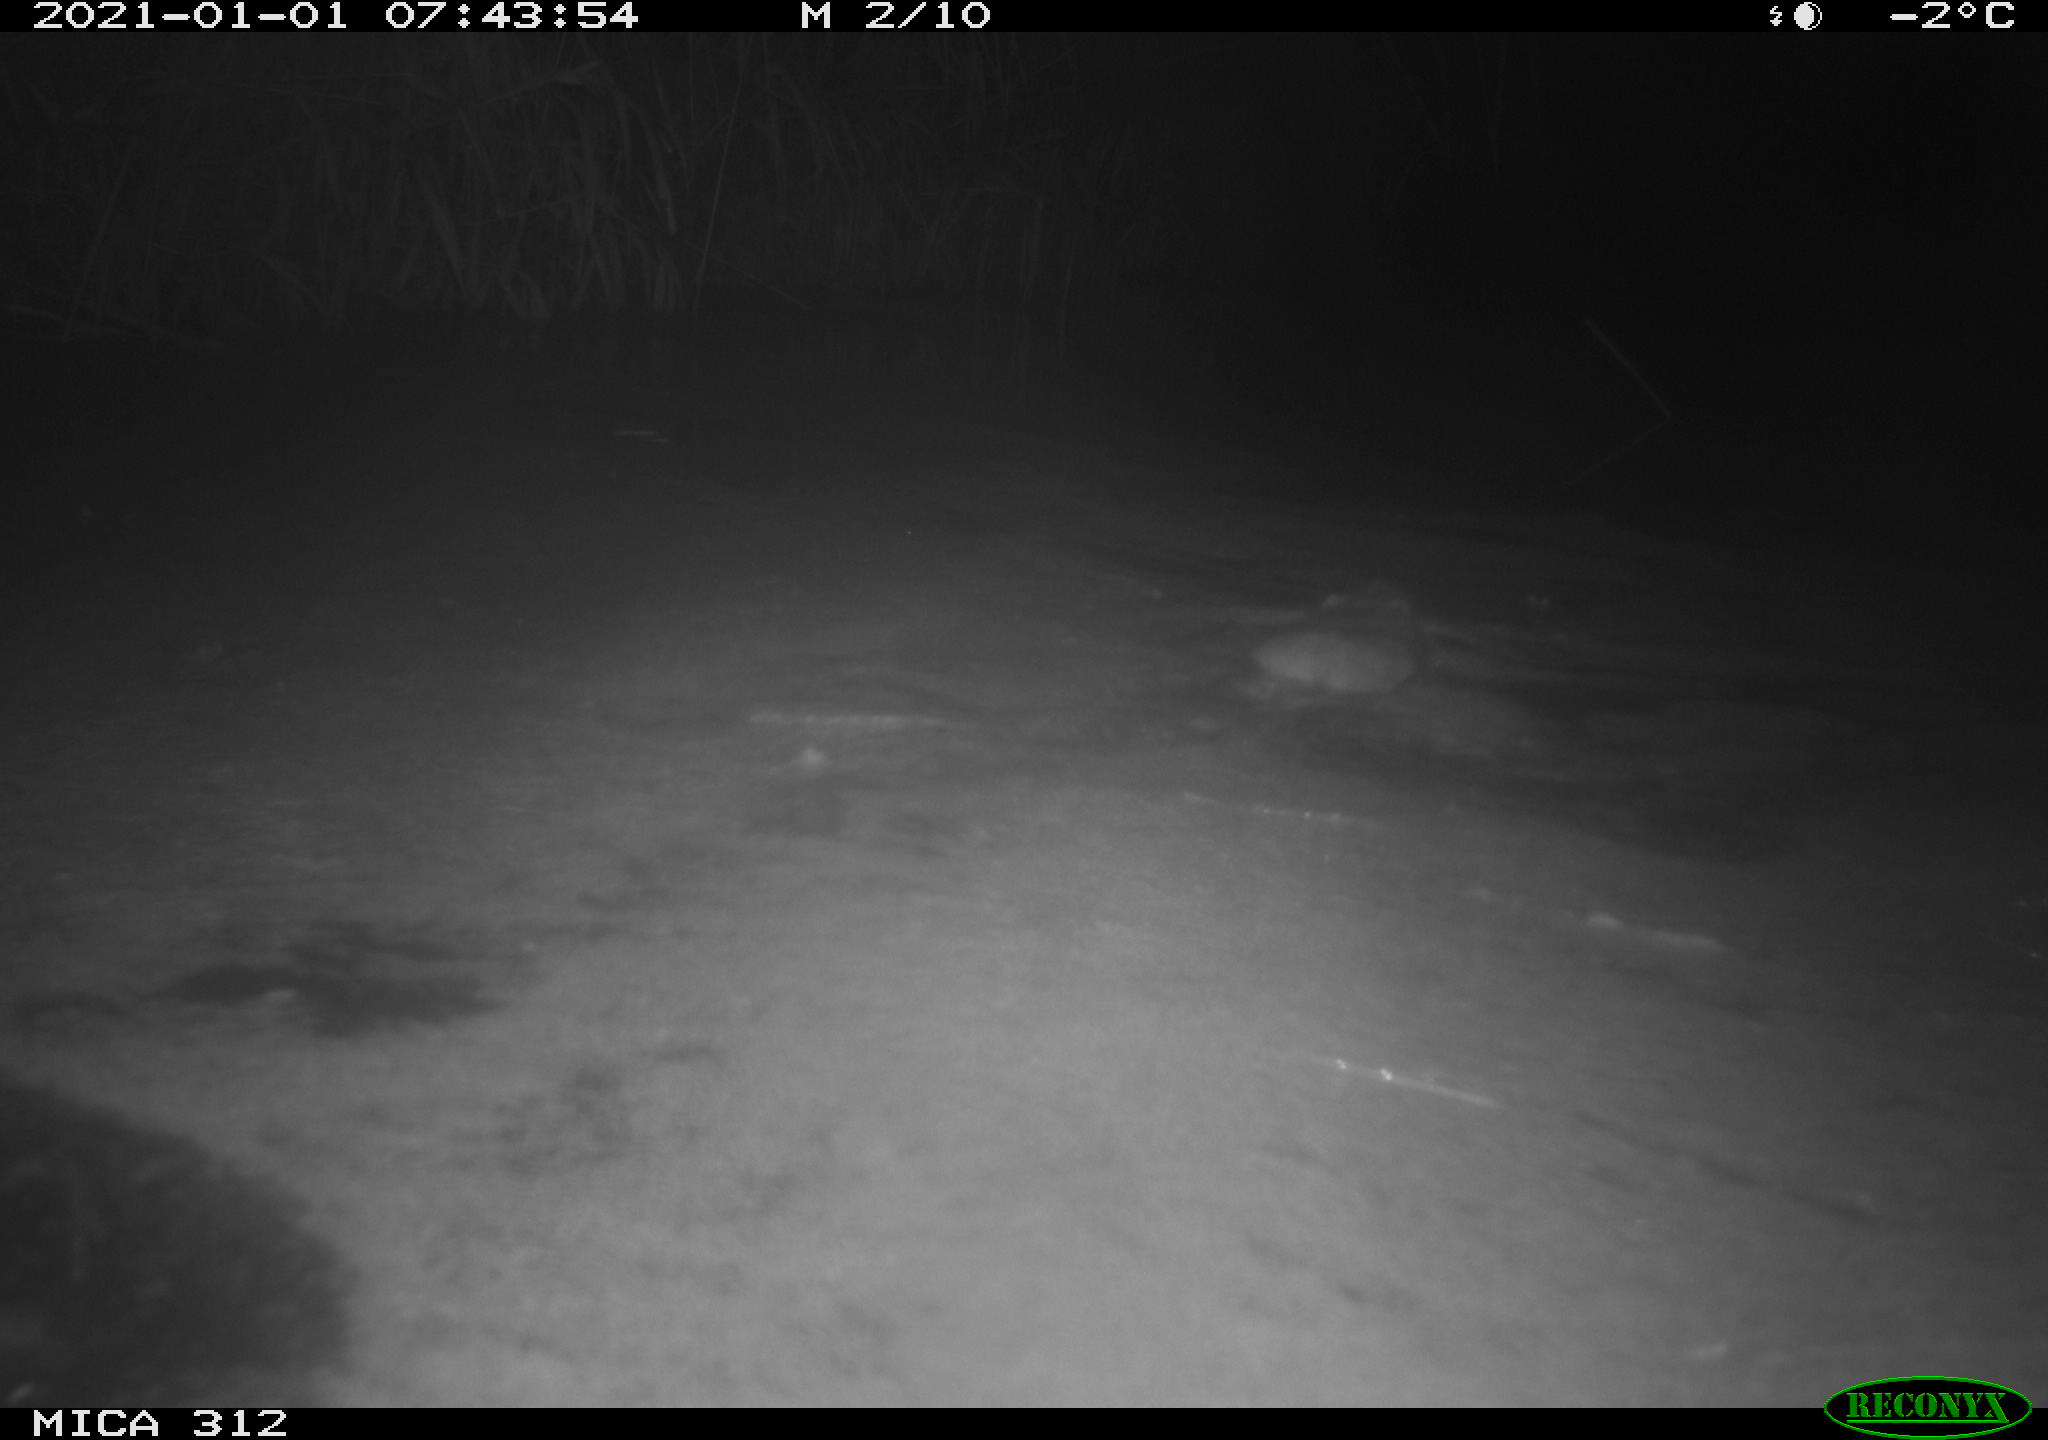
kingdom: Animalia
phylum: Chordata
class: Mammalia
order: Rodentia
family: Muridae
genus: Rattus
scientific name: Rattus norvegicus
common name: Brown rat
